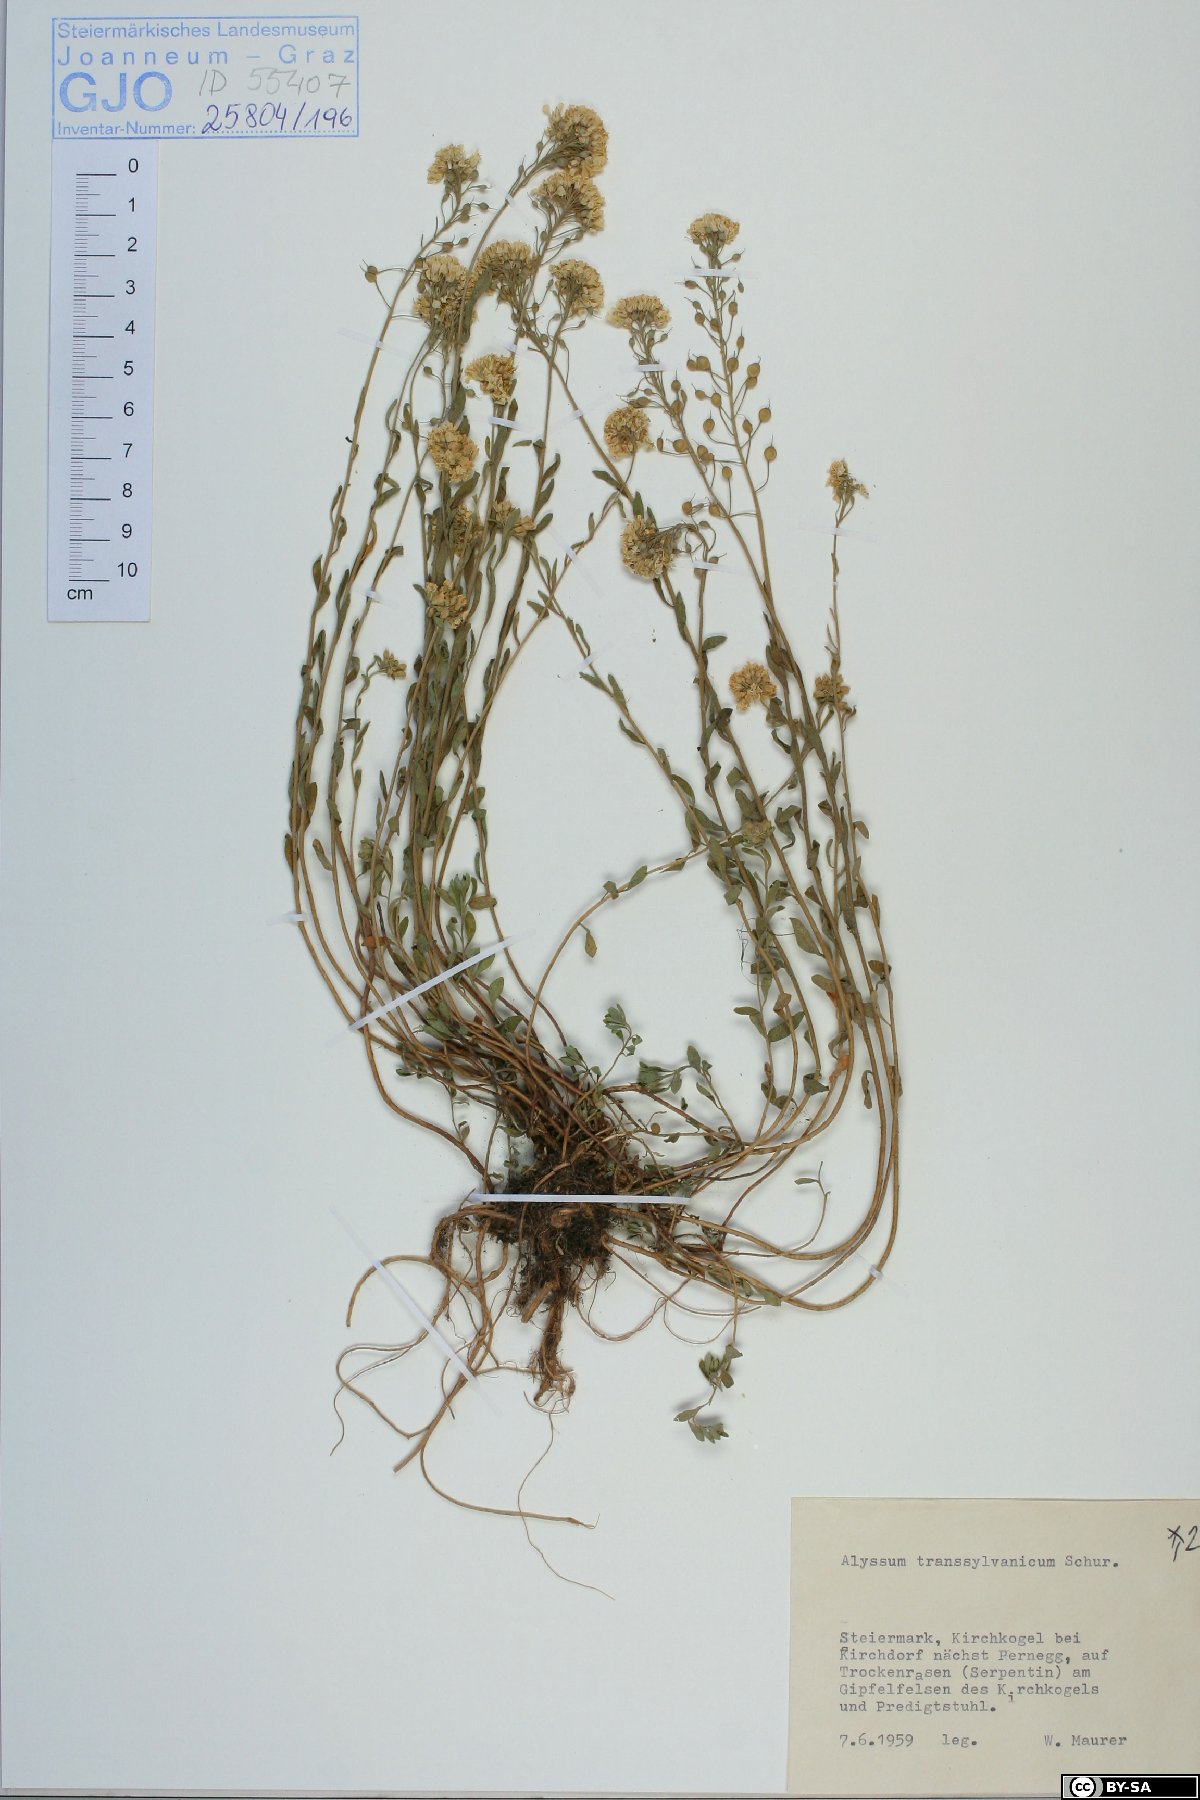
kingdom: Plantae
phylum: Tracheophyta
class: Magnoliopsida
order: Brassicales
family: Brassicaceae
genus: Alyssum
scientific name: Alyssum repens
